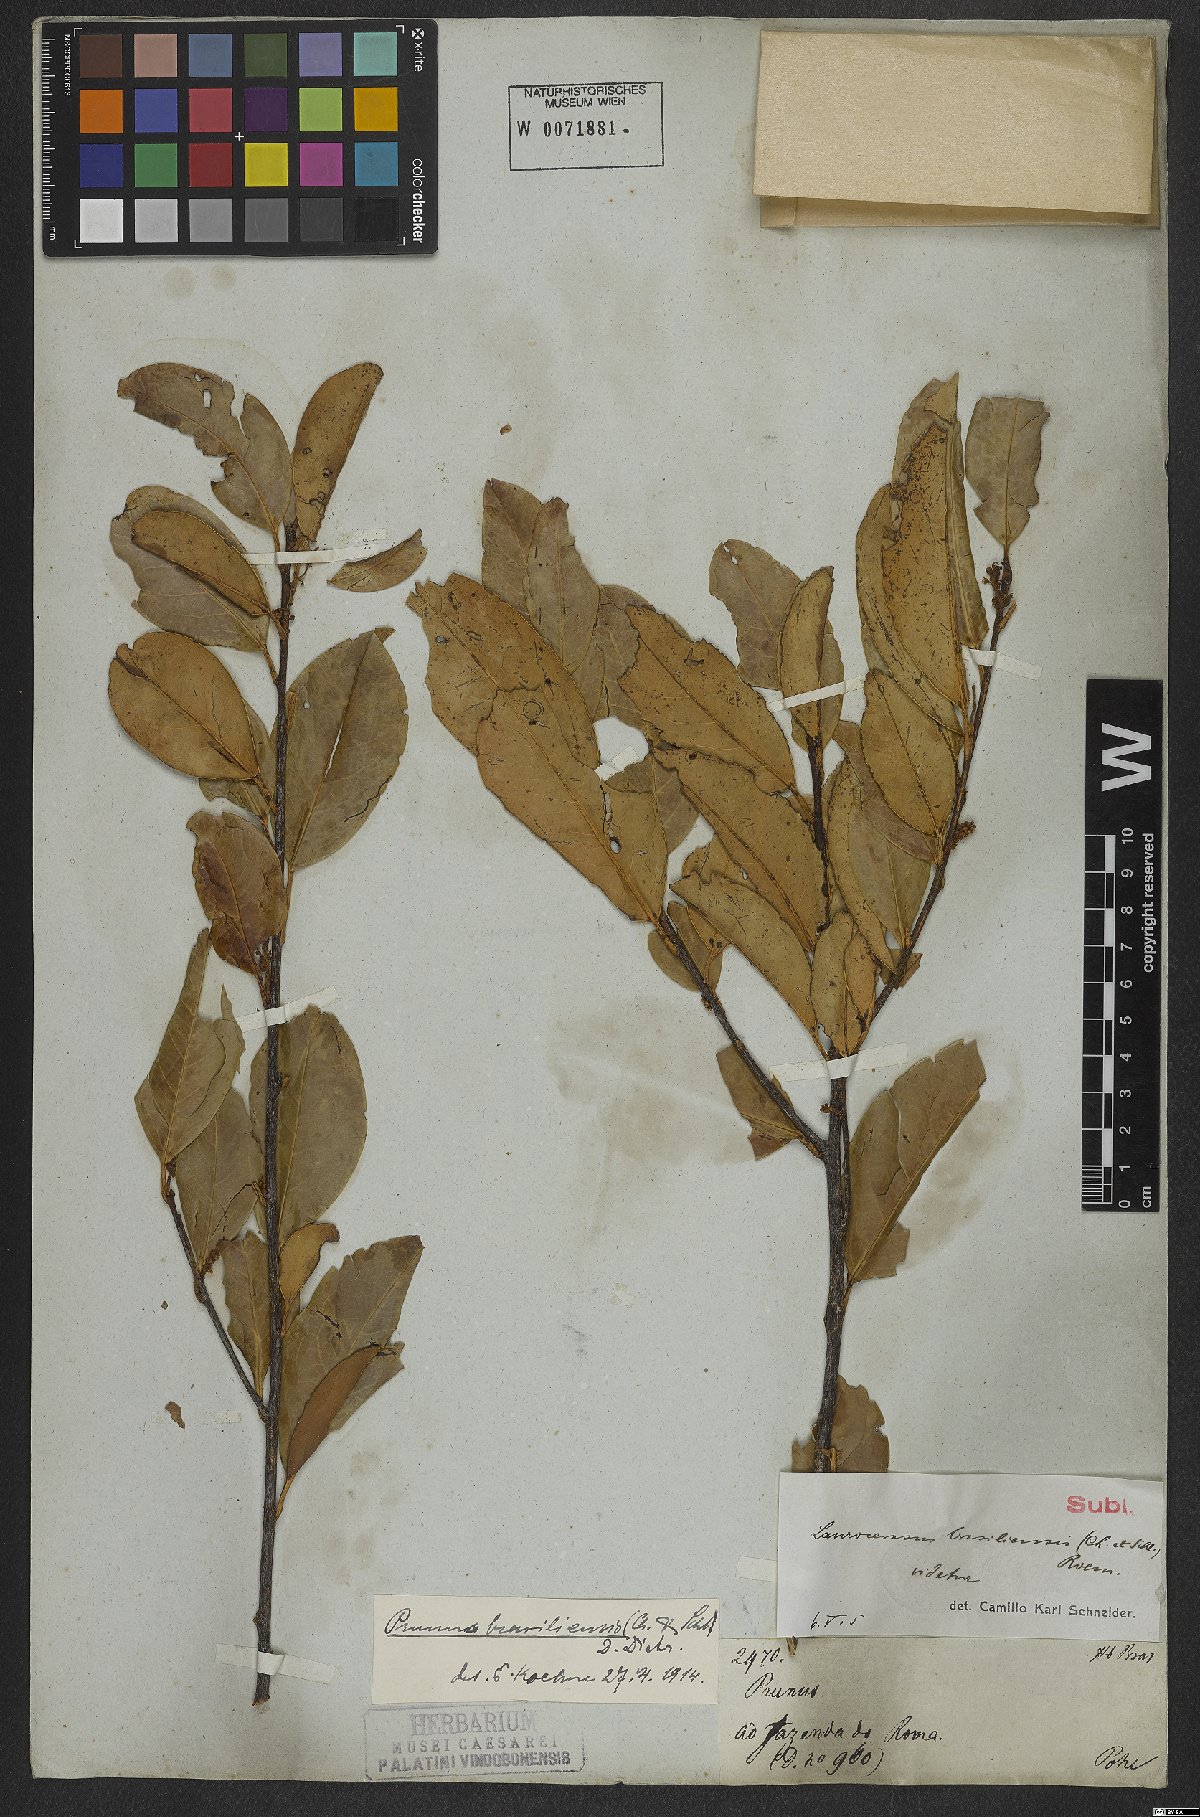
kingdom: Plantae
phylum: Tracheophyta
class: Magnoliopsida
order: Rosales
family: Rosaceae
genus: Prunus
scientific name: Prunus brasiliensis
